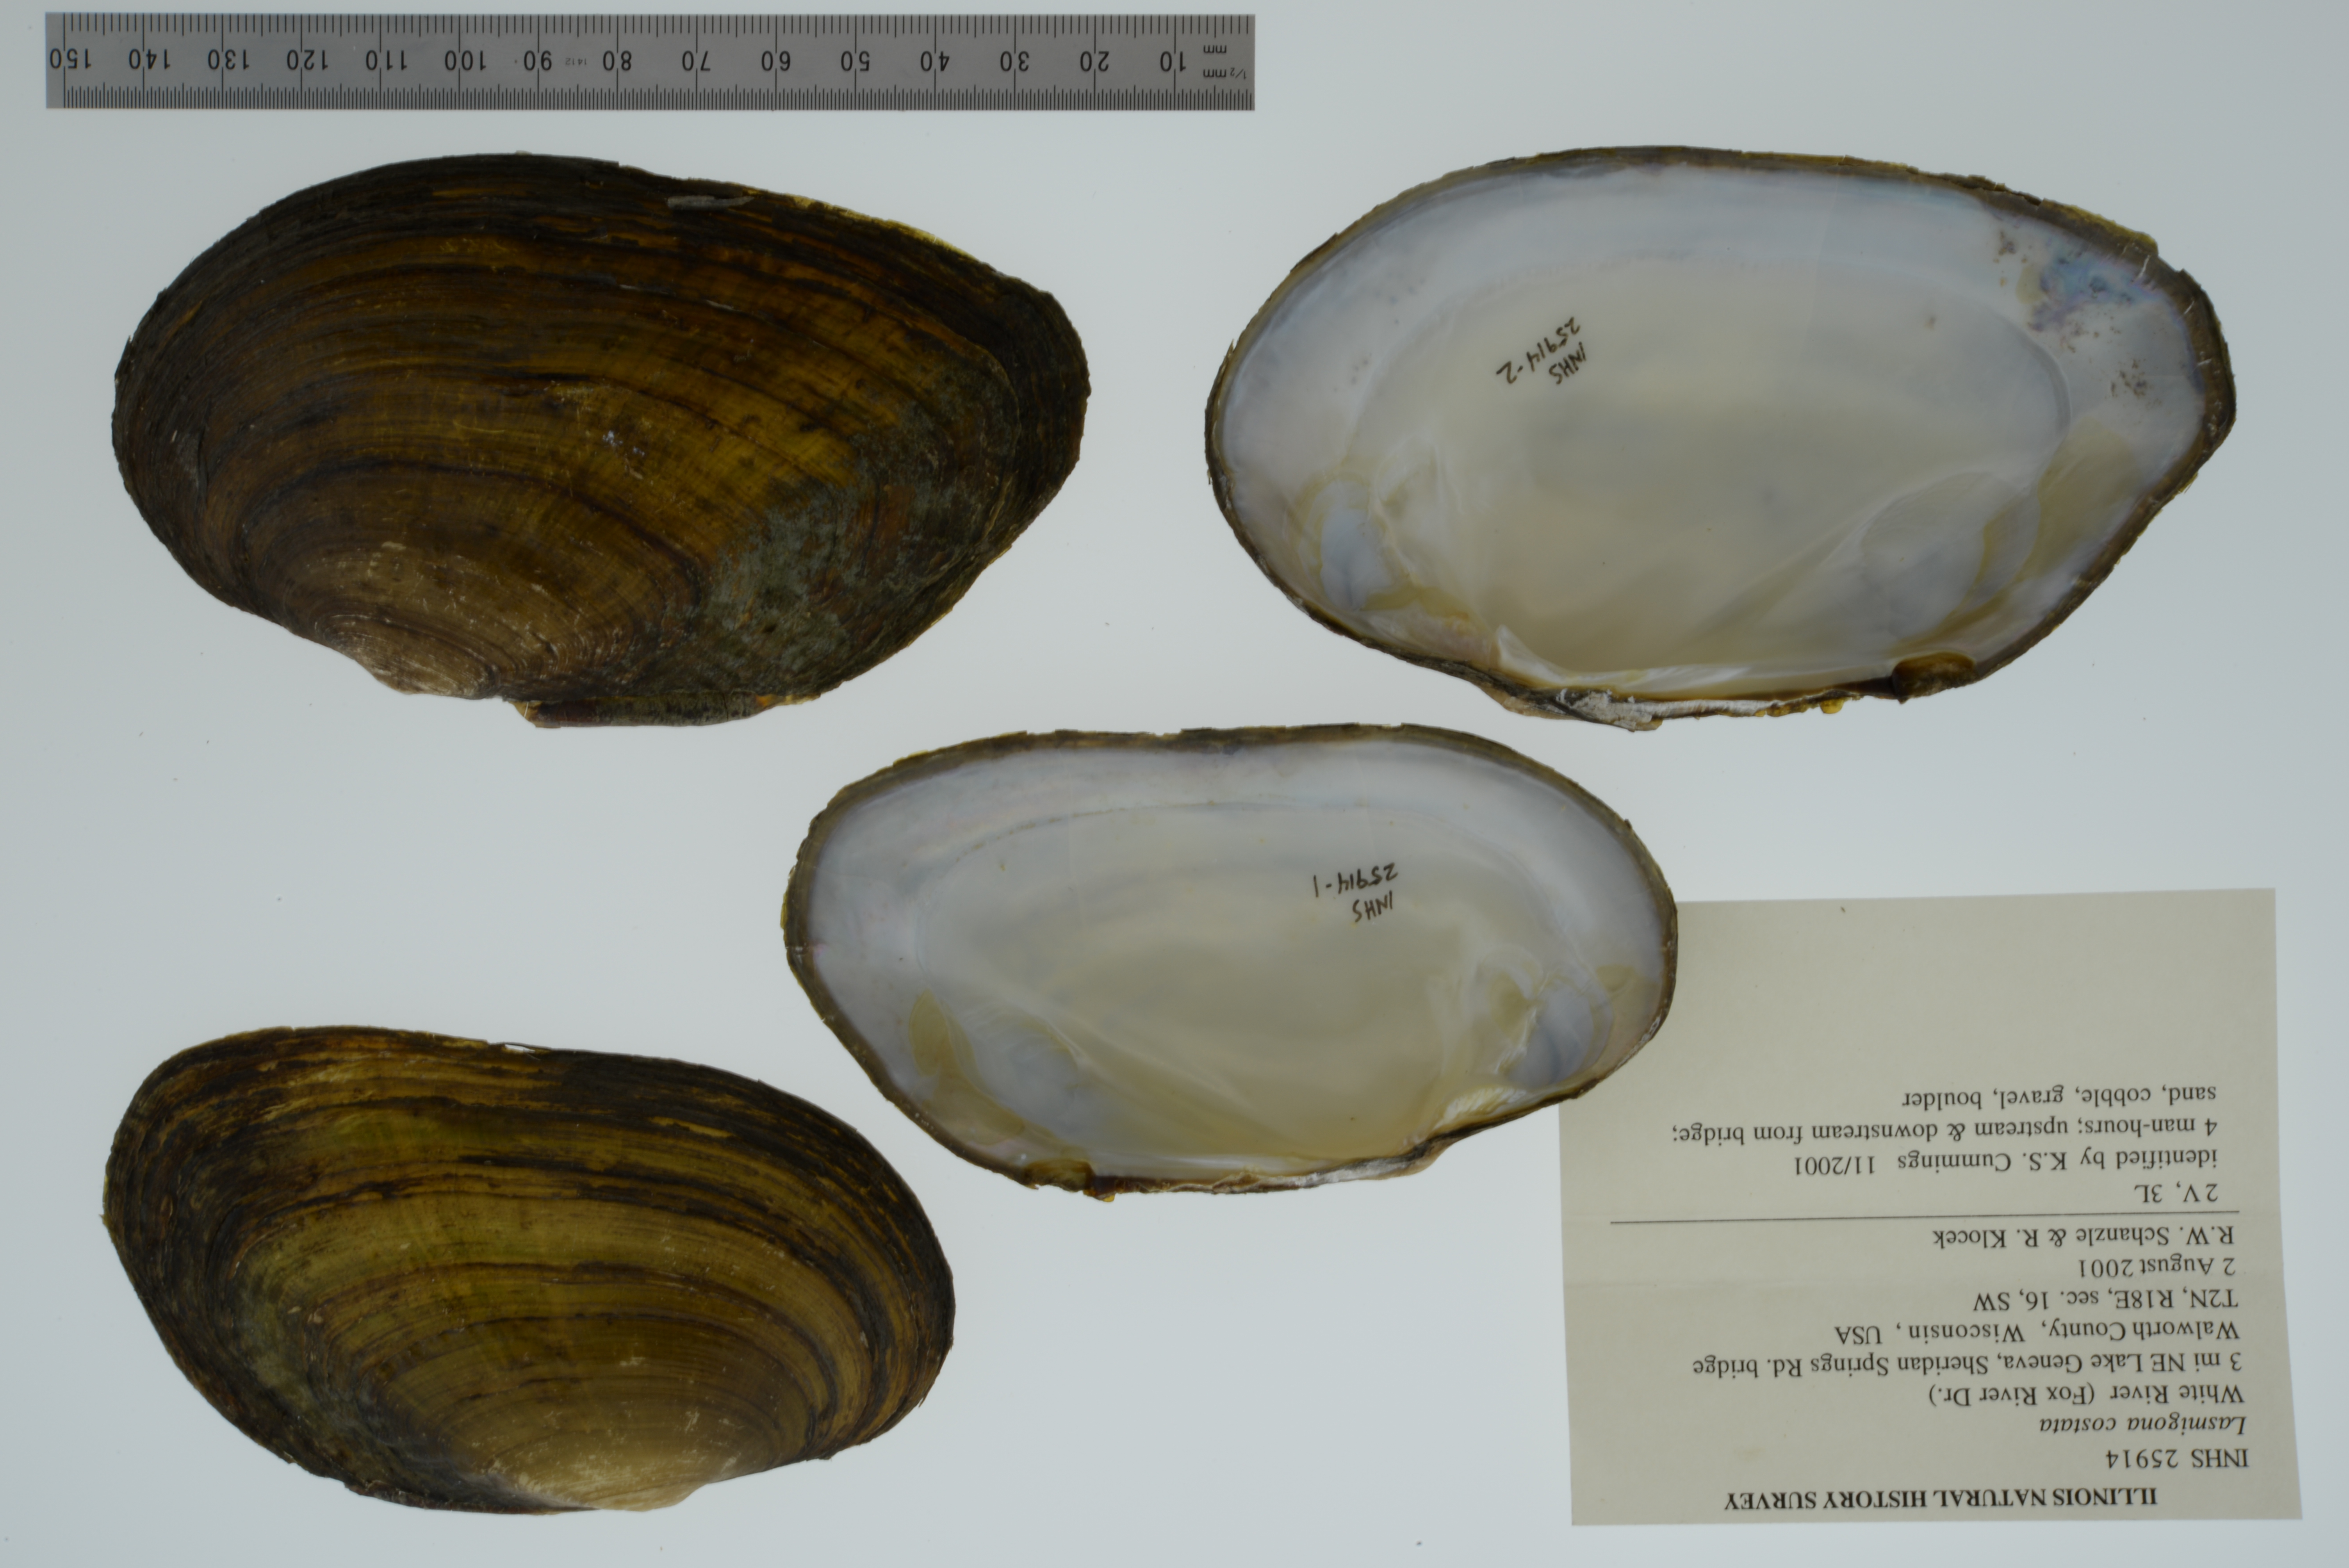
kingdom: Animalia
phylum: Mollusca
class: Bivalvia
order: Unionida
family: Unionidae
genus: Lasmigona
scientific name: Lasmigona costata
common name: Flutedshell
